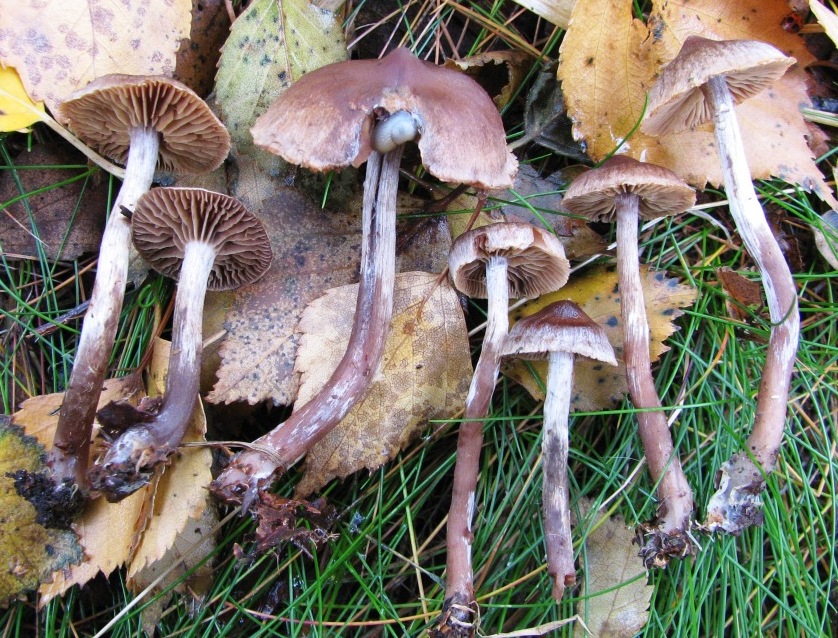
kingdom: Fungi
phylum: Basidiomycota
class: Agaricomycetes
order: Agaricales
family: Cortinariaceae
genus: Cortinarius
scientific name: Cortinarius umbrinolens
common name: mørk slørhat
